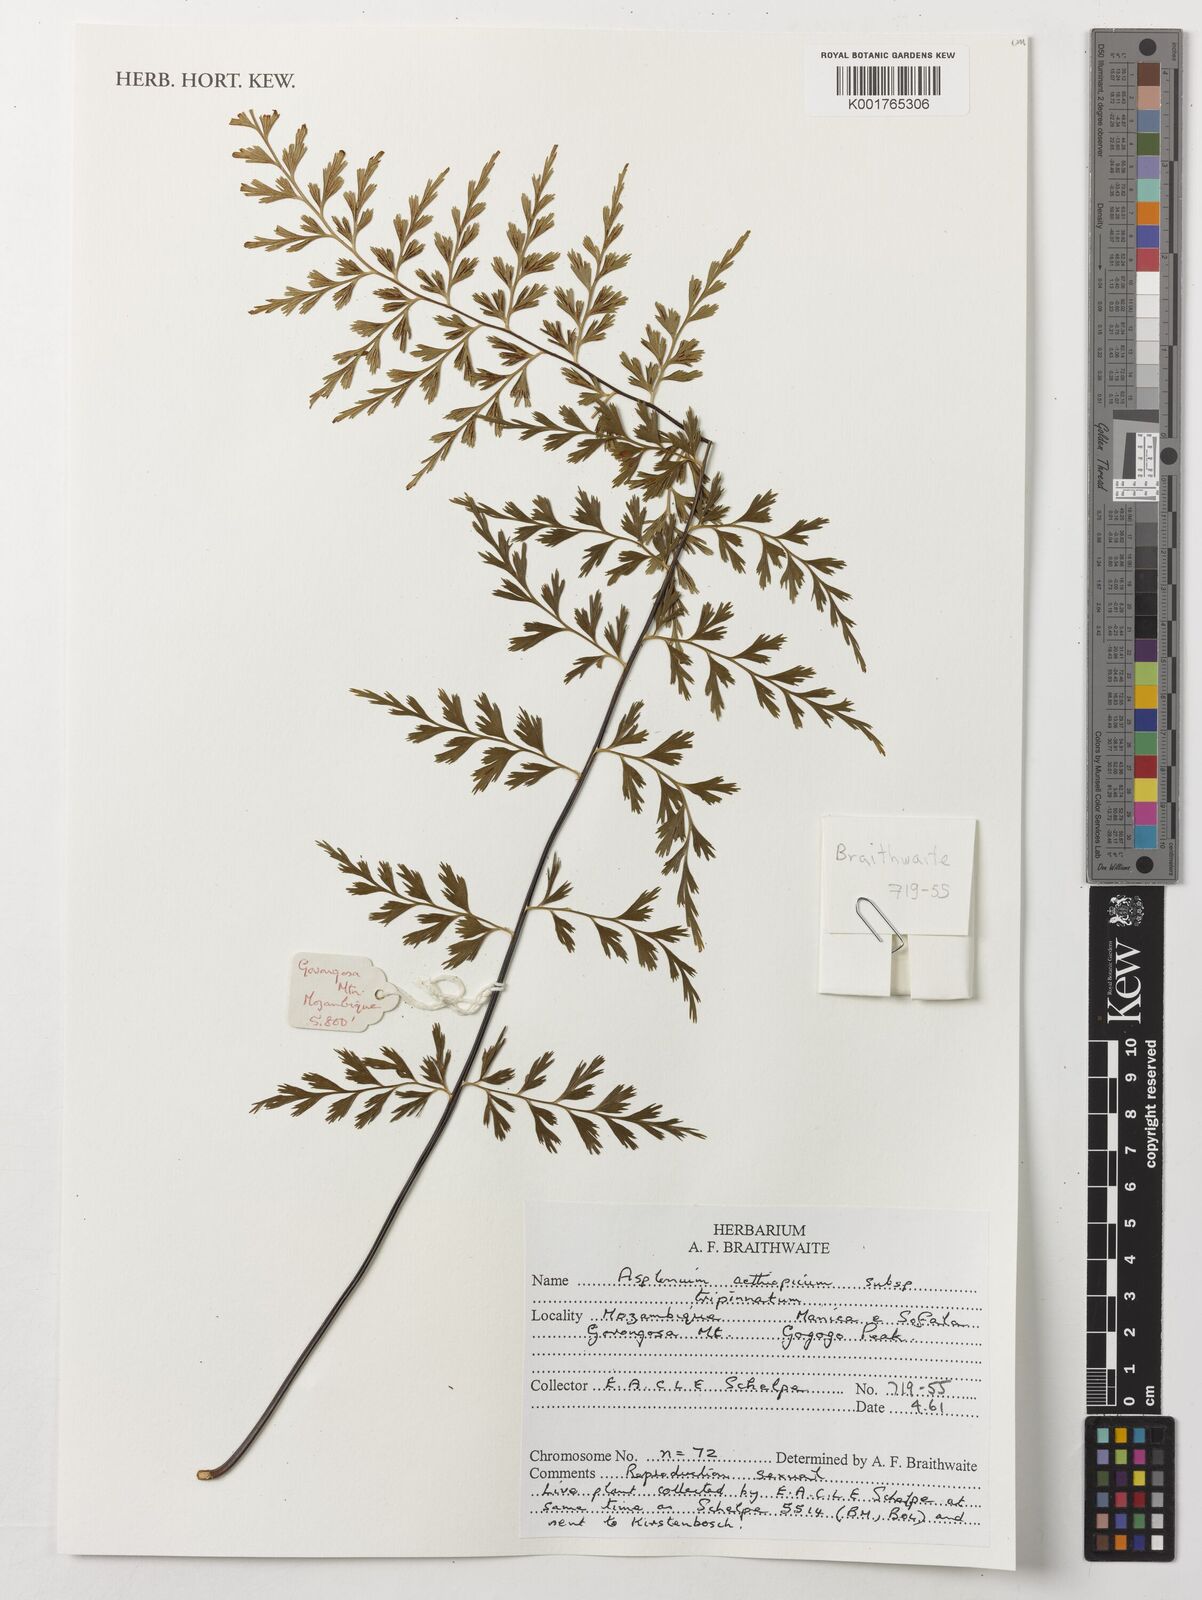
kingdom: Plantae
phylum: Tracheophyta
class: Polypodiopsida
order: Polypodiales
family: Aspleniaceae
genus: Asplenium
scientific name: Asplenium aethiopicum
